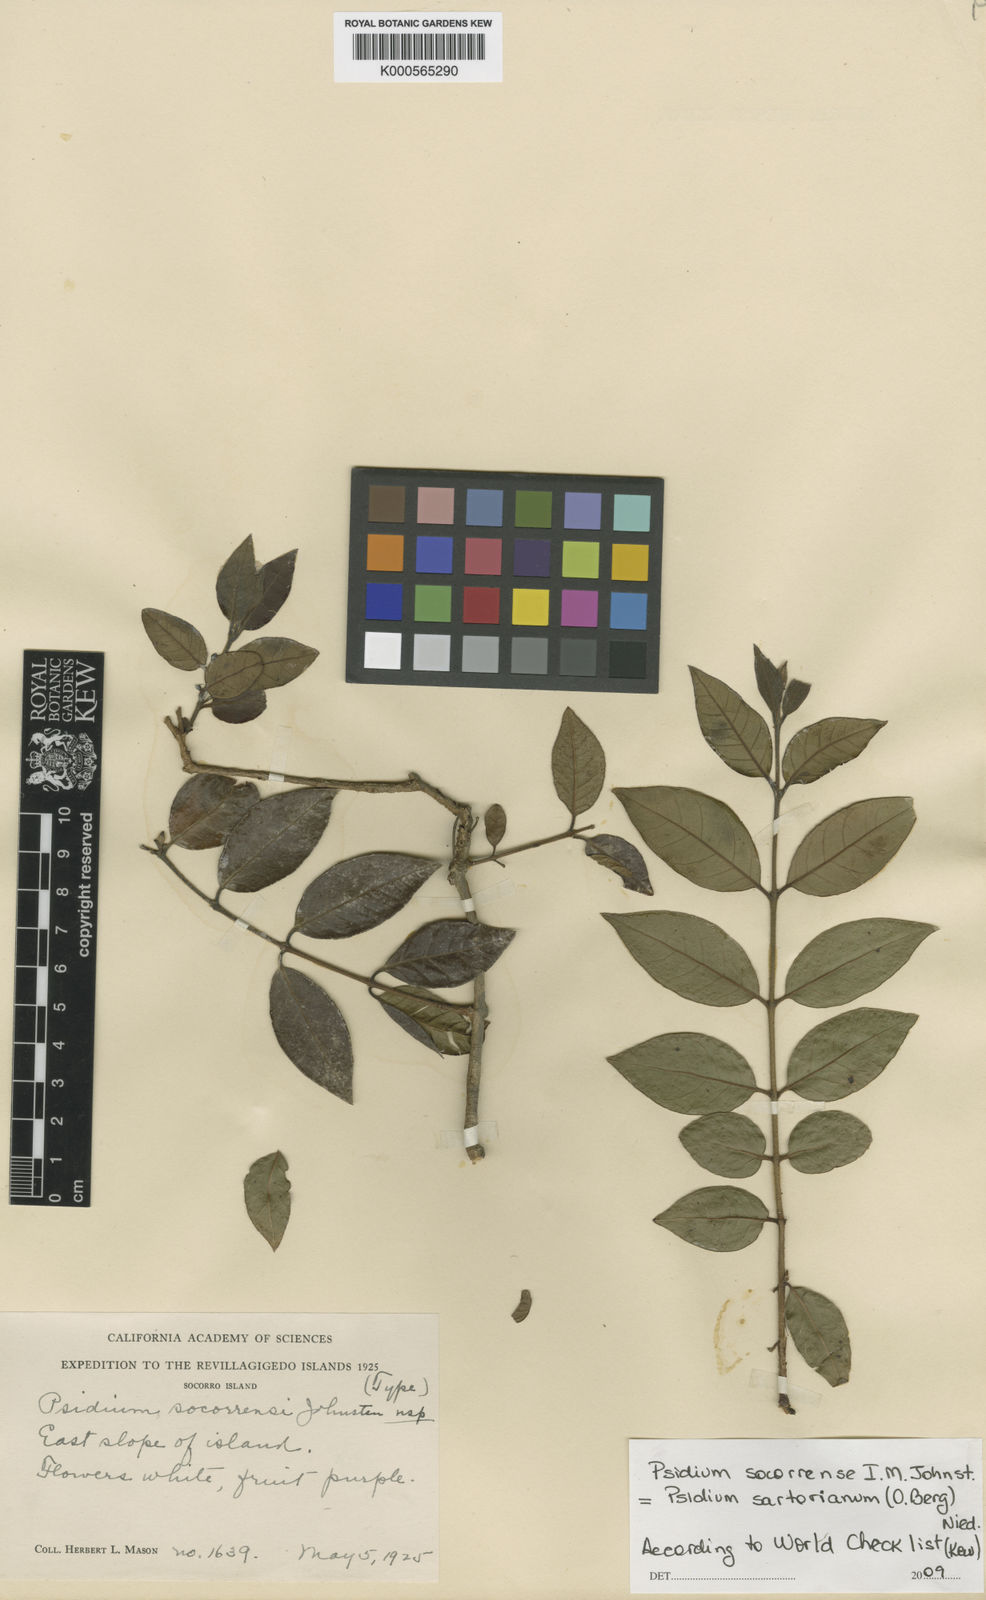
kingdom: Plantae
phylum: Tracheophyta
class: Magnoliopsida
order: Myrtales
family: Myrtaceae
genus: Psidium
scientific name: Psidium sartorianum
